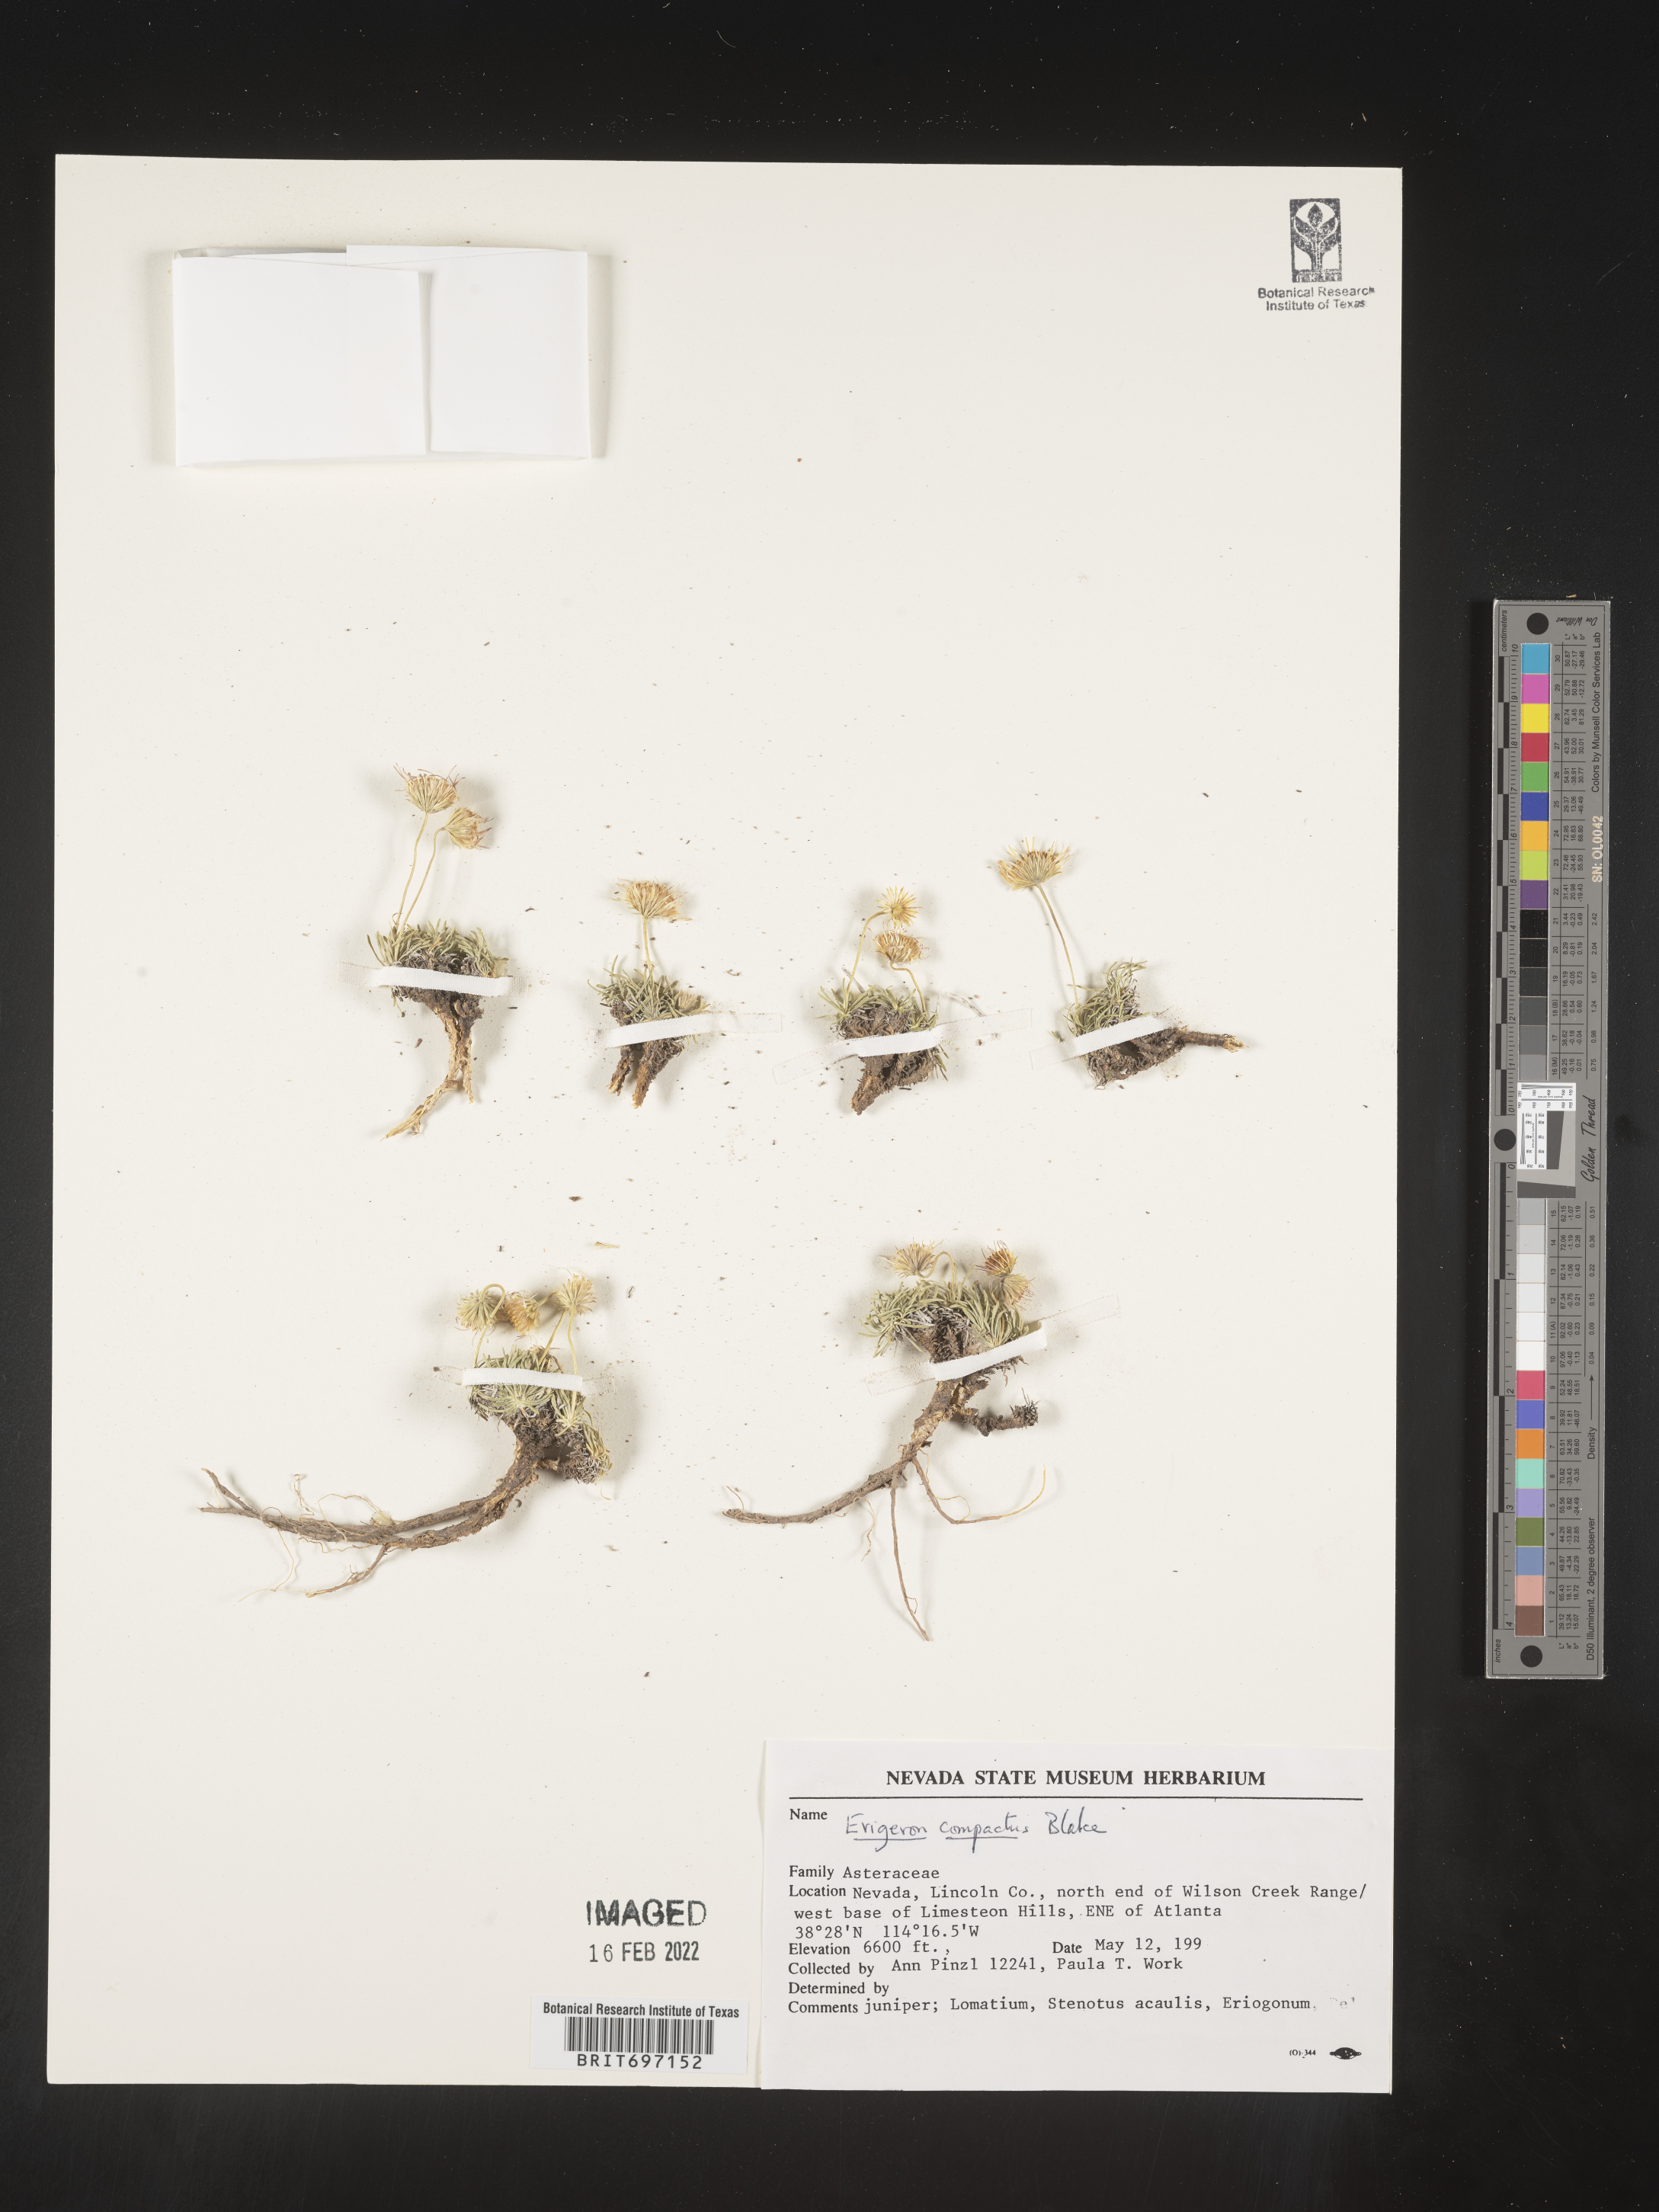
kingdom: Plantae
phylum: Tracheophyta
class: Magnoliopsida
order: Asterales
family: Asteraceae
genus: Erigeron
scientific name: Erigeron compactus
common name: Fern-leaf fleabane
